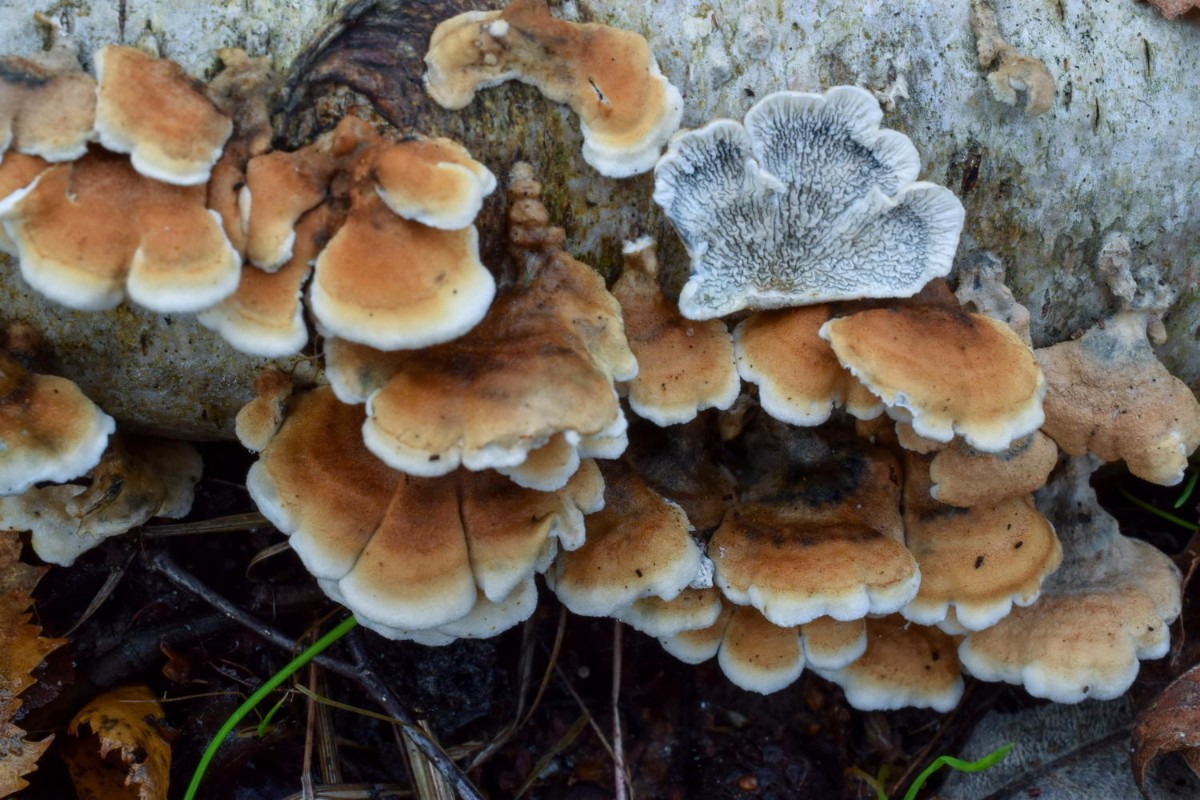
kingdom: Fungi
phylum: Basidiomycota
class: Agaricomycetes
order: Amylocorticiales
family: Amylocorticiaceae
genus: Plicaturopsis
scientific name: Plicaturopsis crispa
